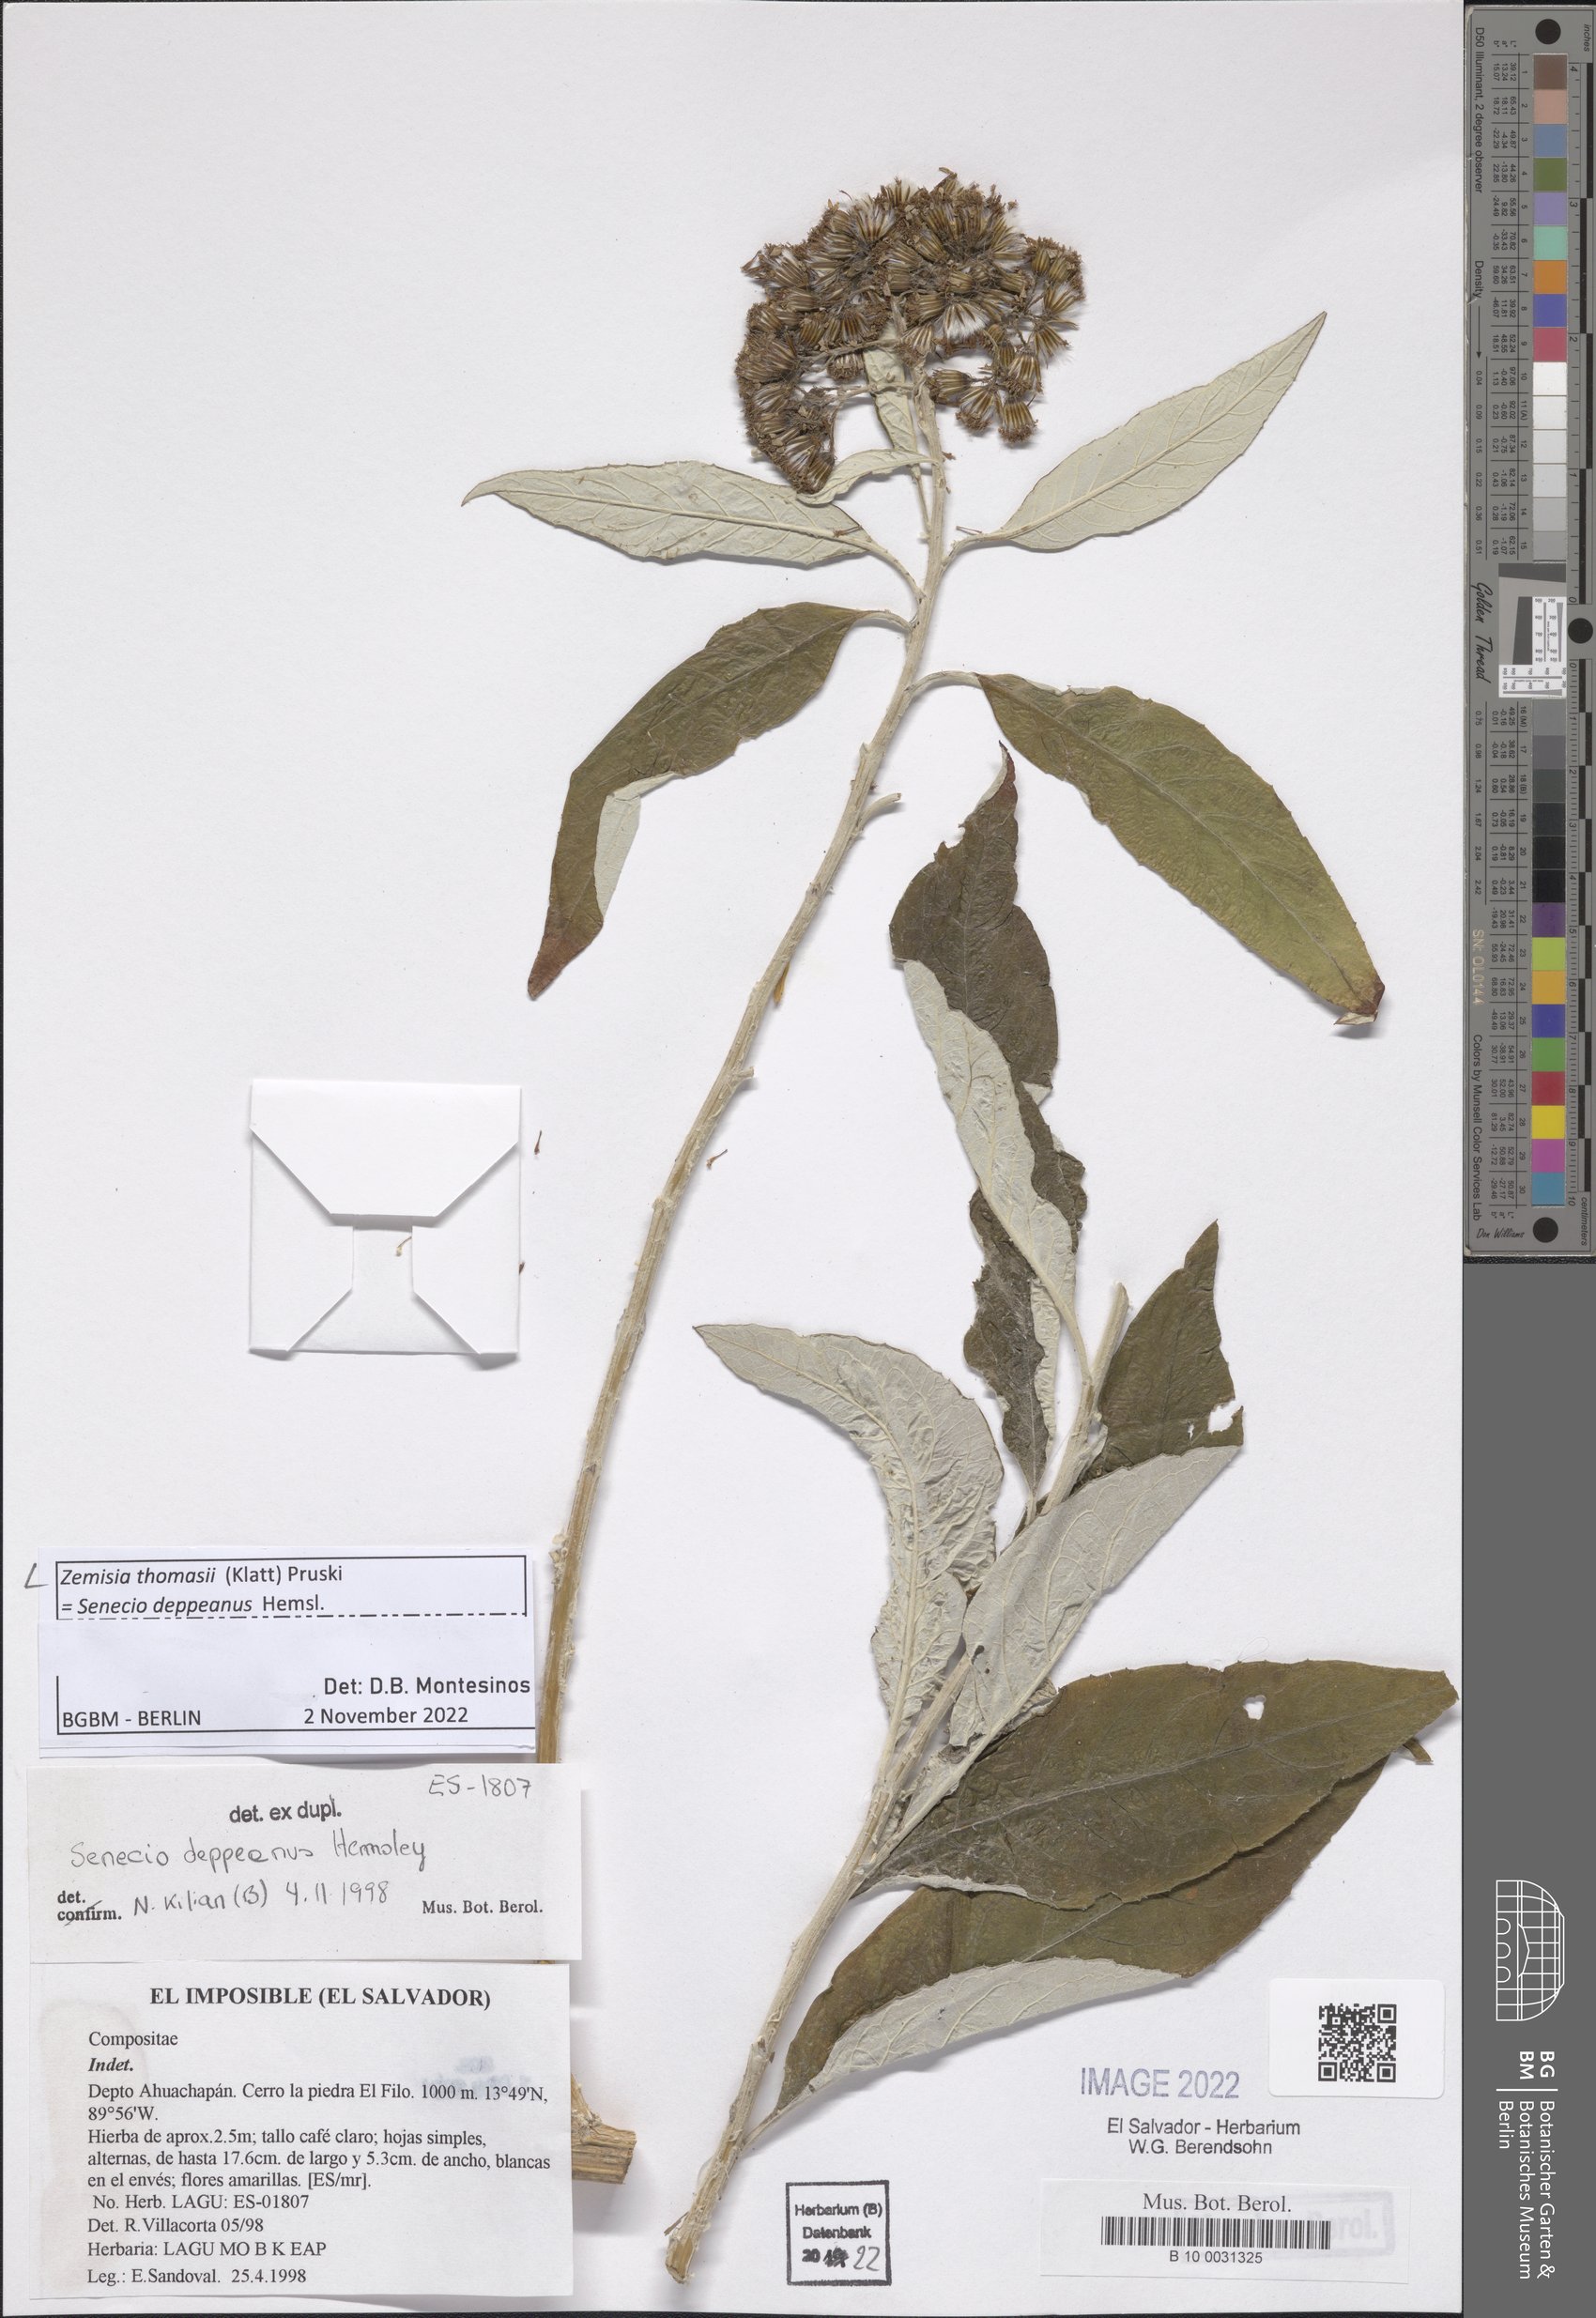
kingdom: Plantae
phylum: Tracheophyta
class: Magnoliopsida
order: Asterales
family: Asteraceae
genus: Zemisia
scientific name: Zemisia thomasii
